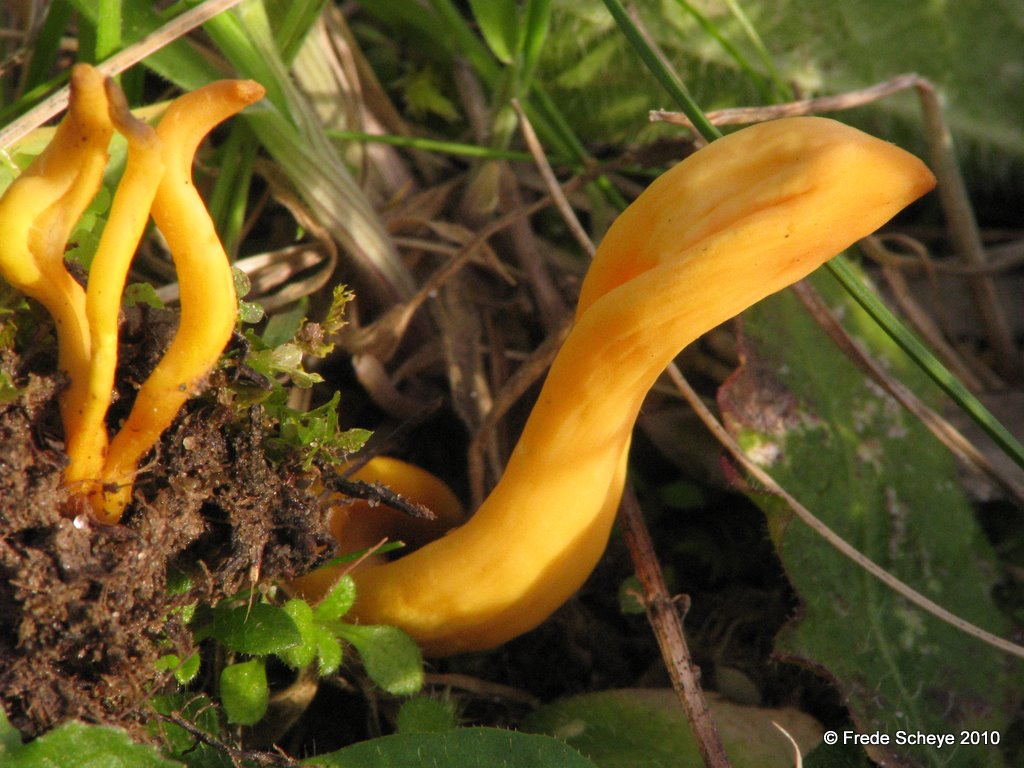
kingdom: Fungi
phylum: Basidiomycota
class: Agaricomycetes
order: Agaricales
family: Clavariaceae
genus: Clavulinopsis
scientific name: Clavulinopsis helvola
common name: orangegul køllesvamp
